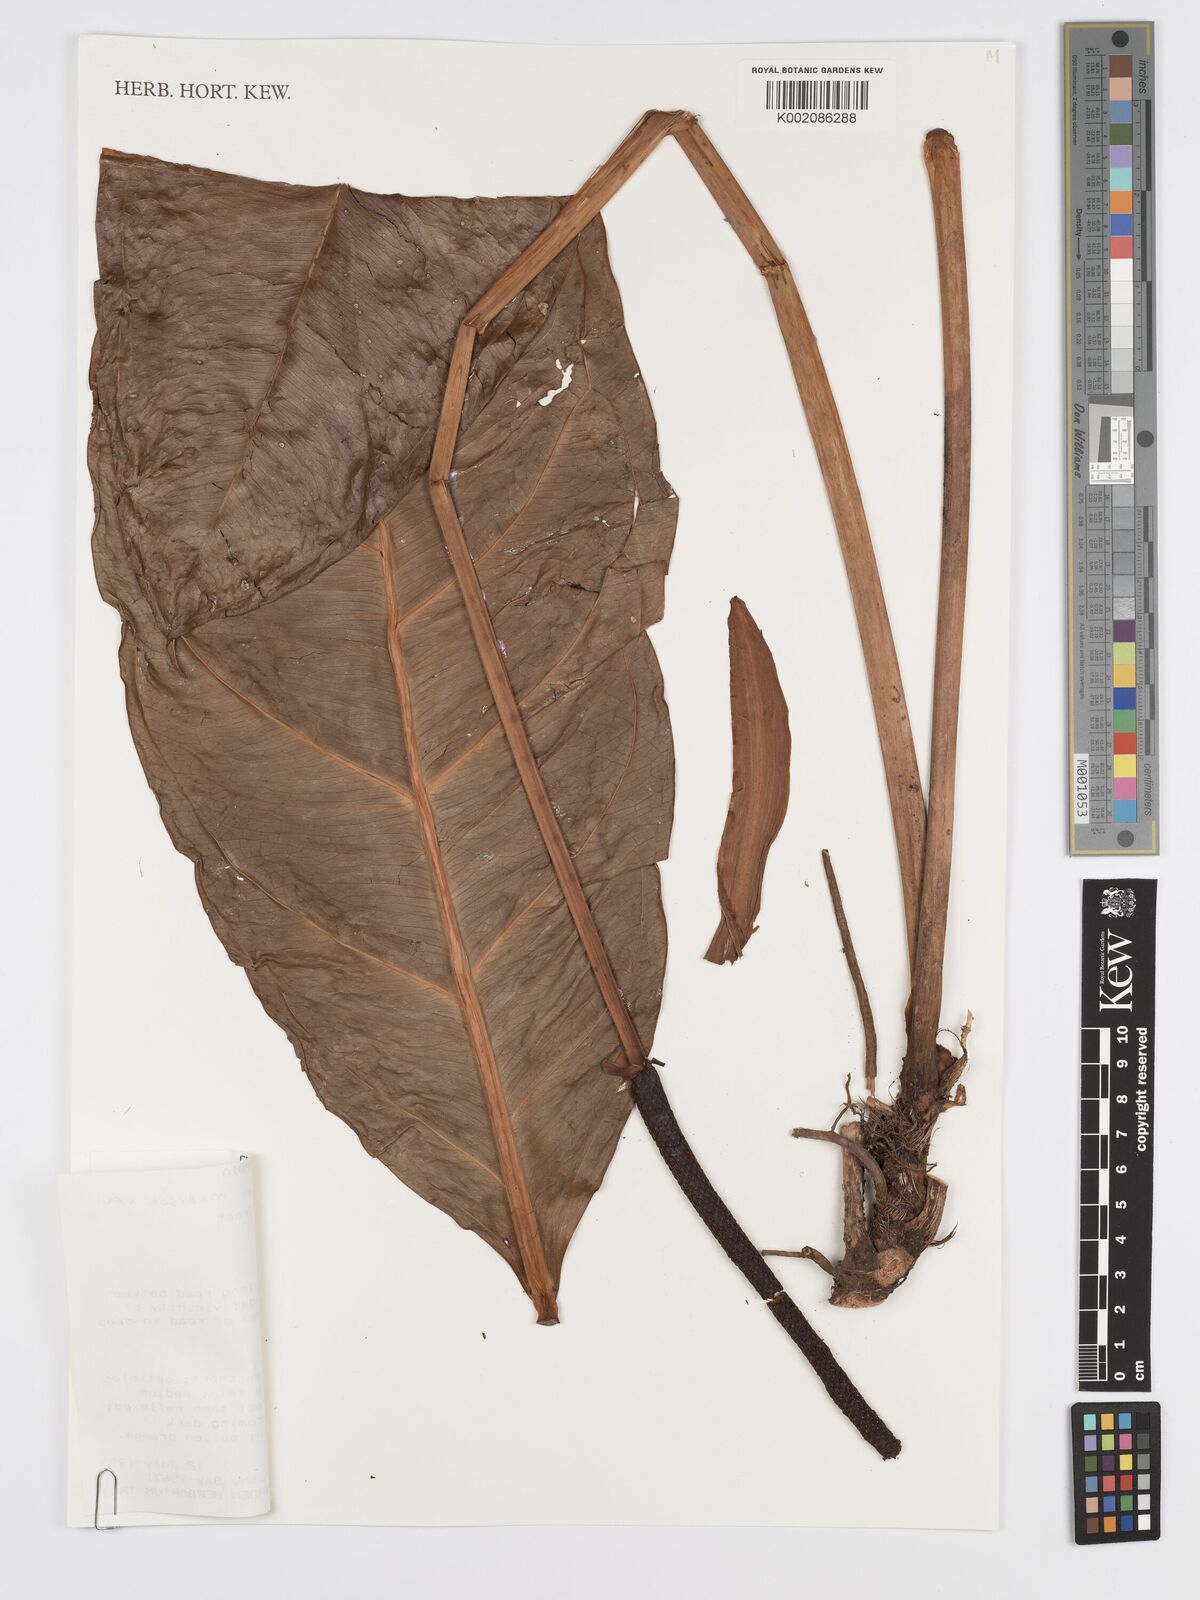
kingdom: Plantae
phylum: Tracheophyta
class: Liliopsida
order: Alismatales
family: Araceae
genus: Anthurium
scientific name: Anthurium incomptum
